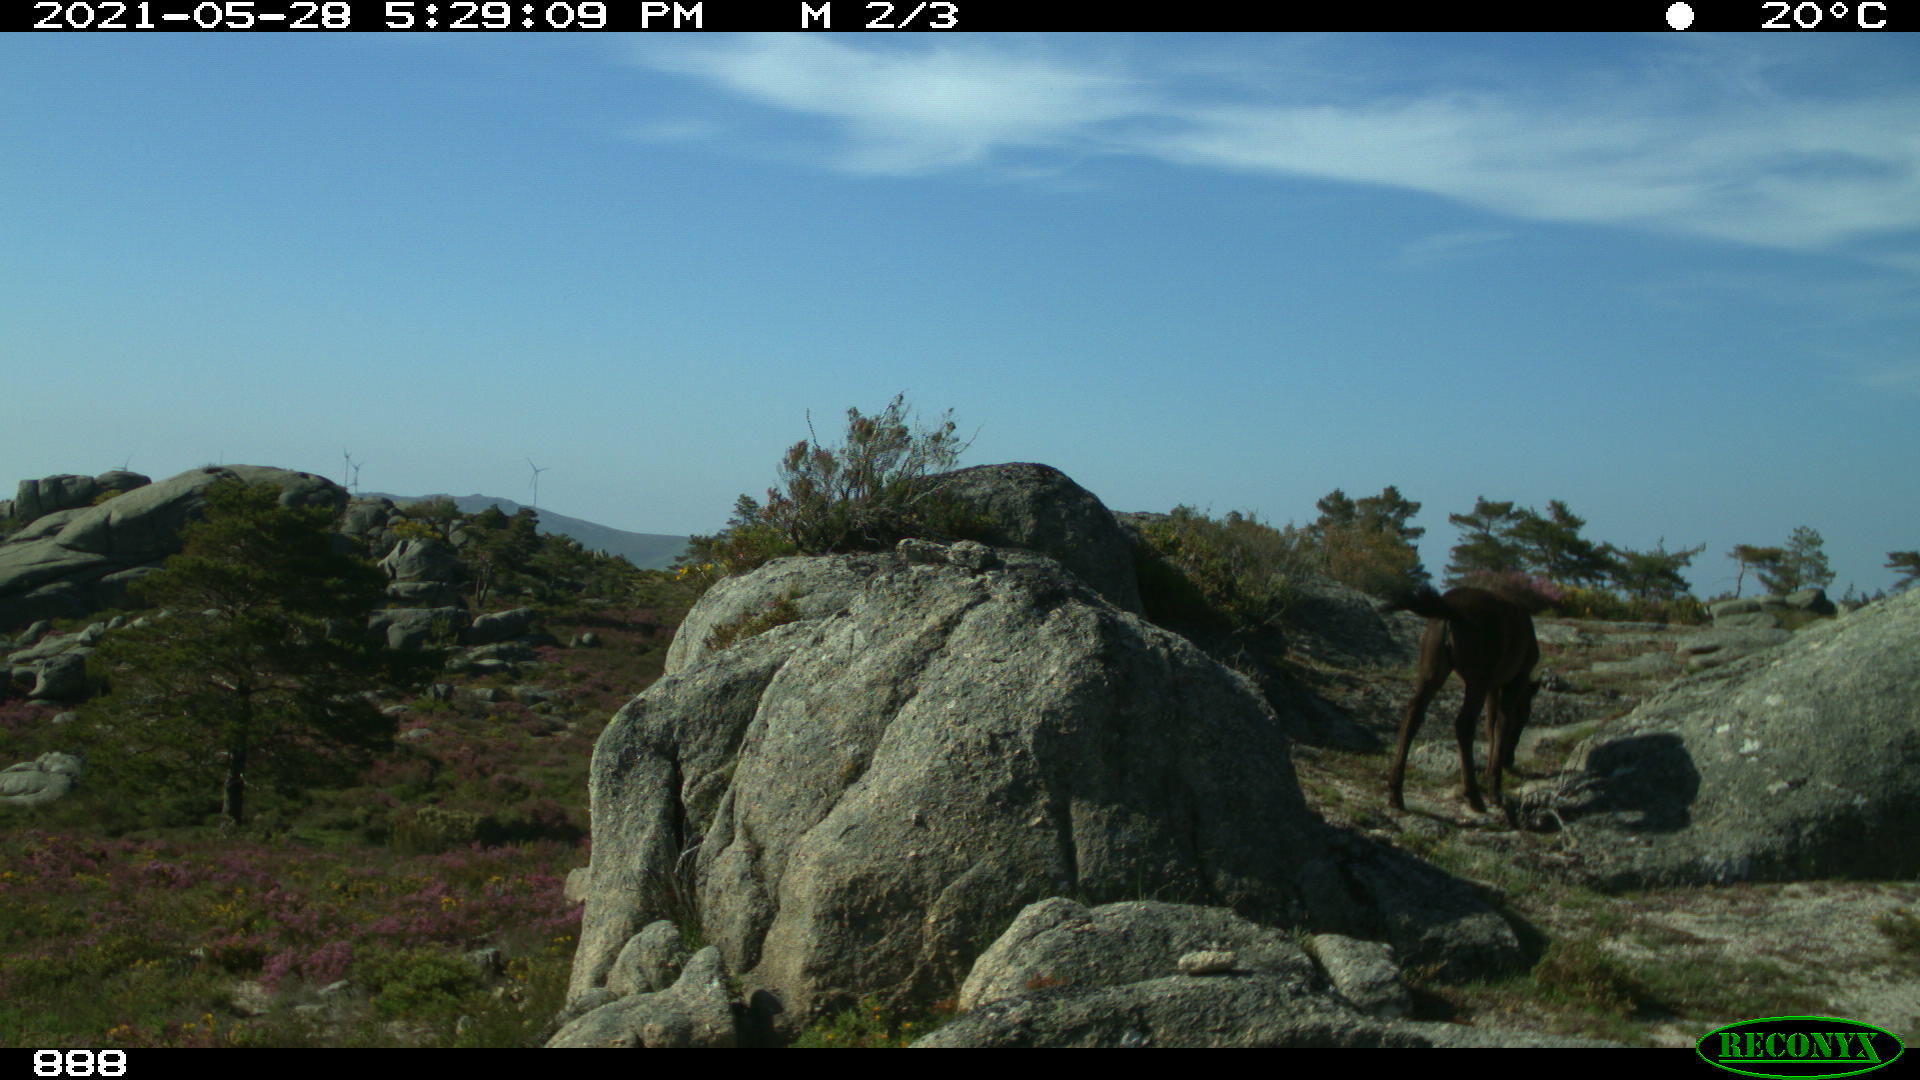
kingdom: Animalia
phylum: Chordata
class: Mammalia
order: Perissodactyla
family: Equidae
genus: Equus
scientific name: Equus caballus
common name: Horse
